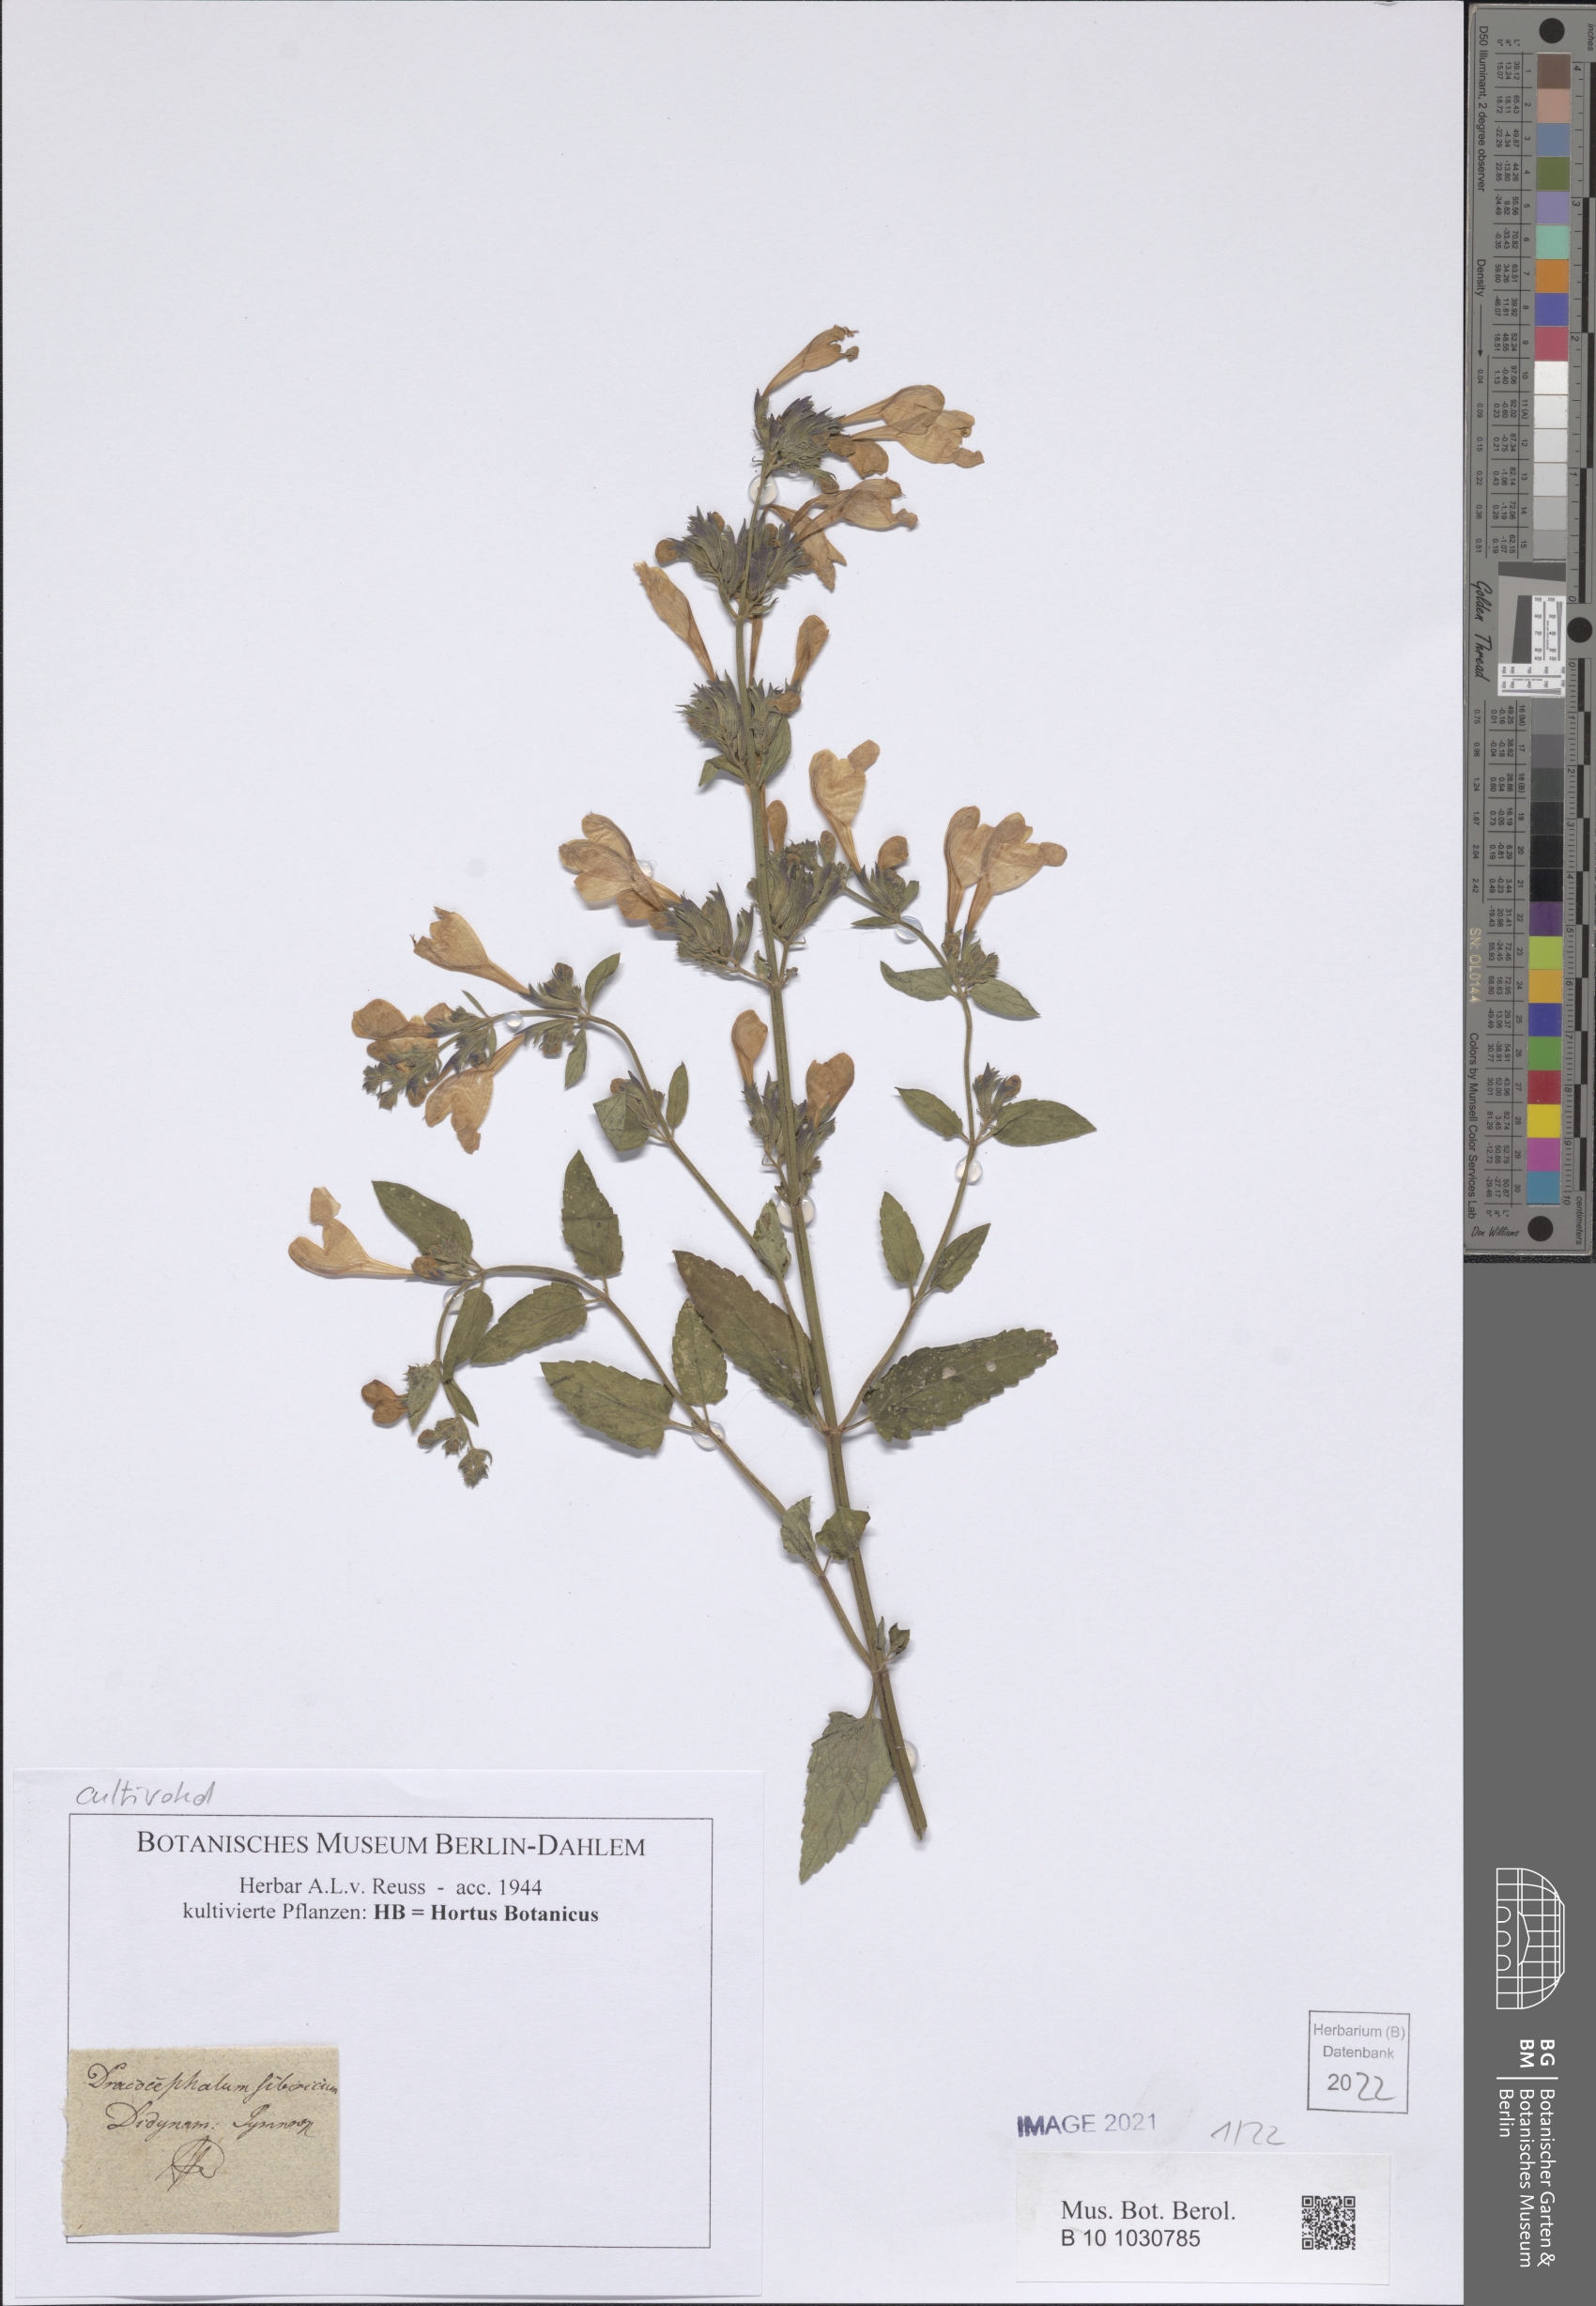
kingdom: Plantae
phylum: Tracheophyta
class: Magnoliopsida
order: Lamiales
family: Lamiaceae
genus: Nepeta
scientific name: Nepeta sibirica
